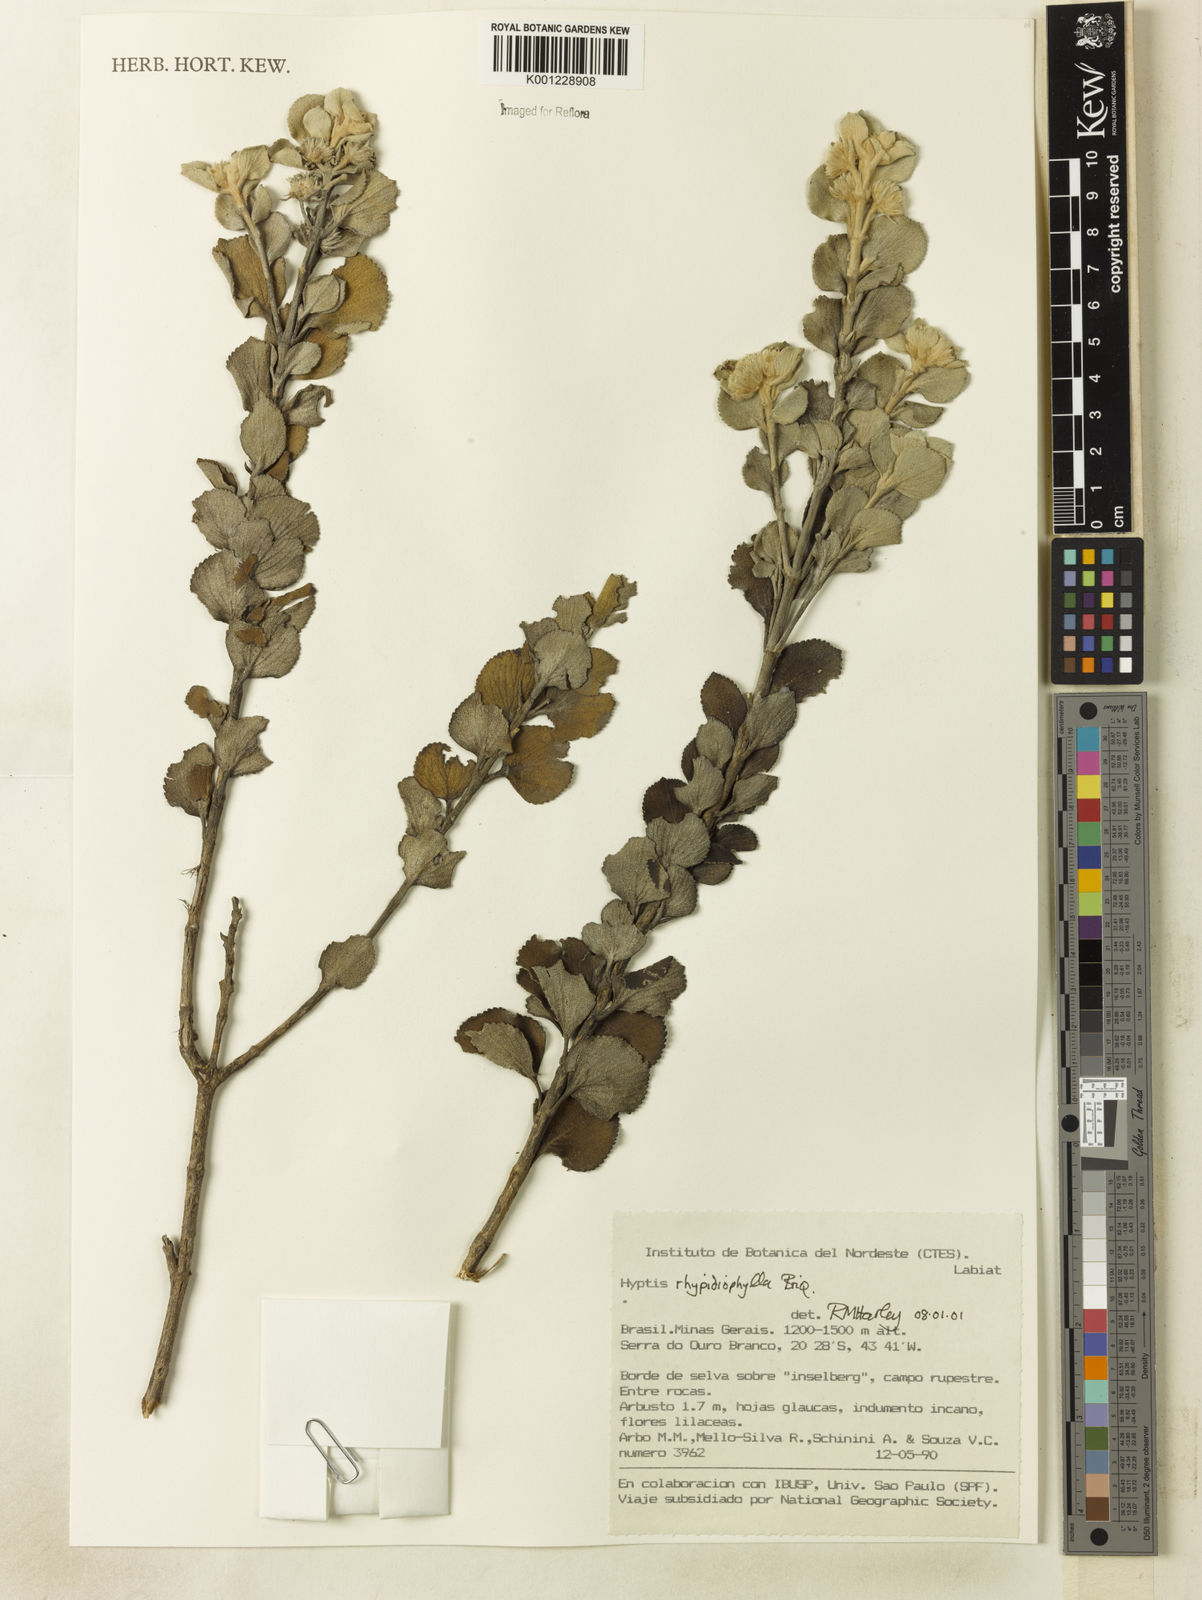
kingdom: Plantae
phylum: Tracheophyta
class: Magnoliopsida
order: Lamiales
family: Lamiaceae
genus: Hyptis
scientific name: Hyptis rhypidiophylla
